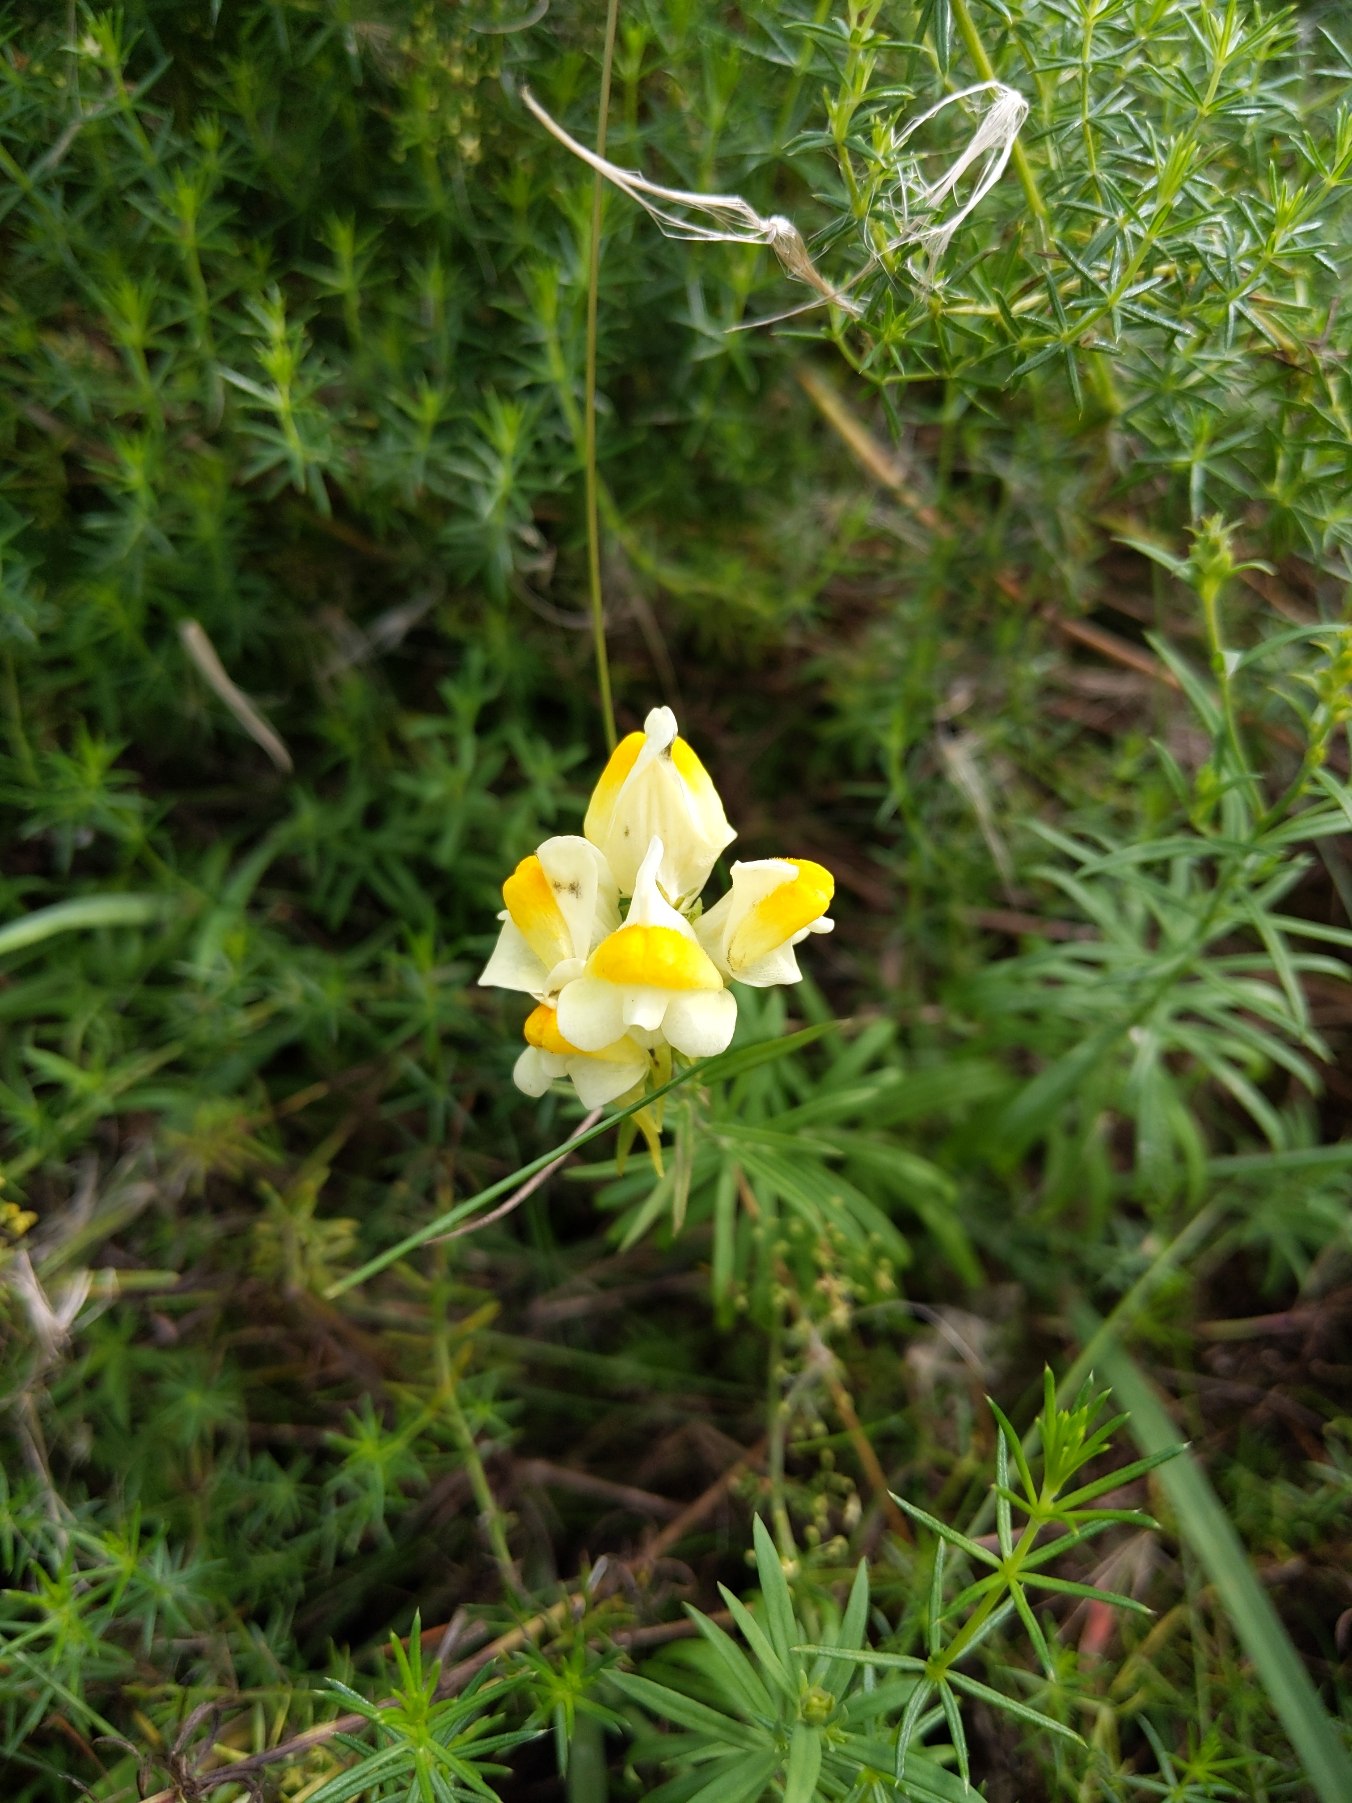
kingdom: Plantae
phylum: Tracheophyta
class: Magnoliopsida
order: Lamiales
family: Plantaginaceae
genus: Linaria
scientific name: Linaria vulgaris
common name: Almindelig torskemund
